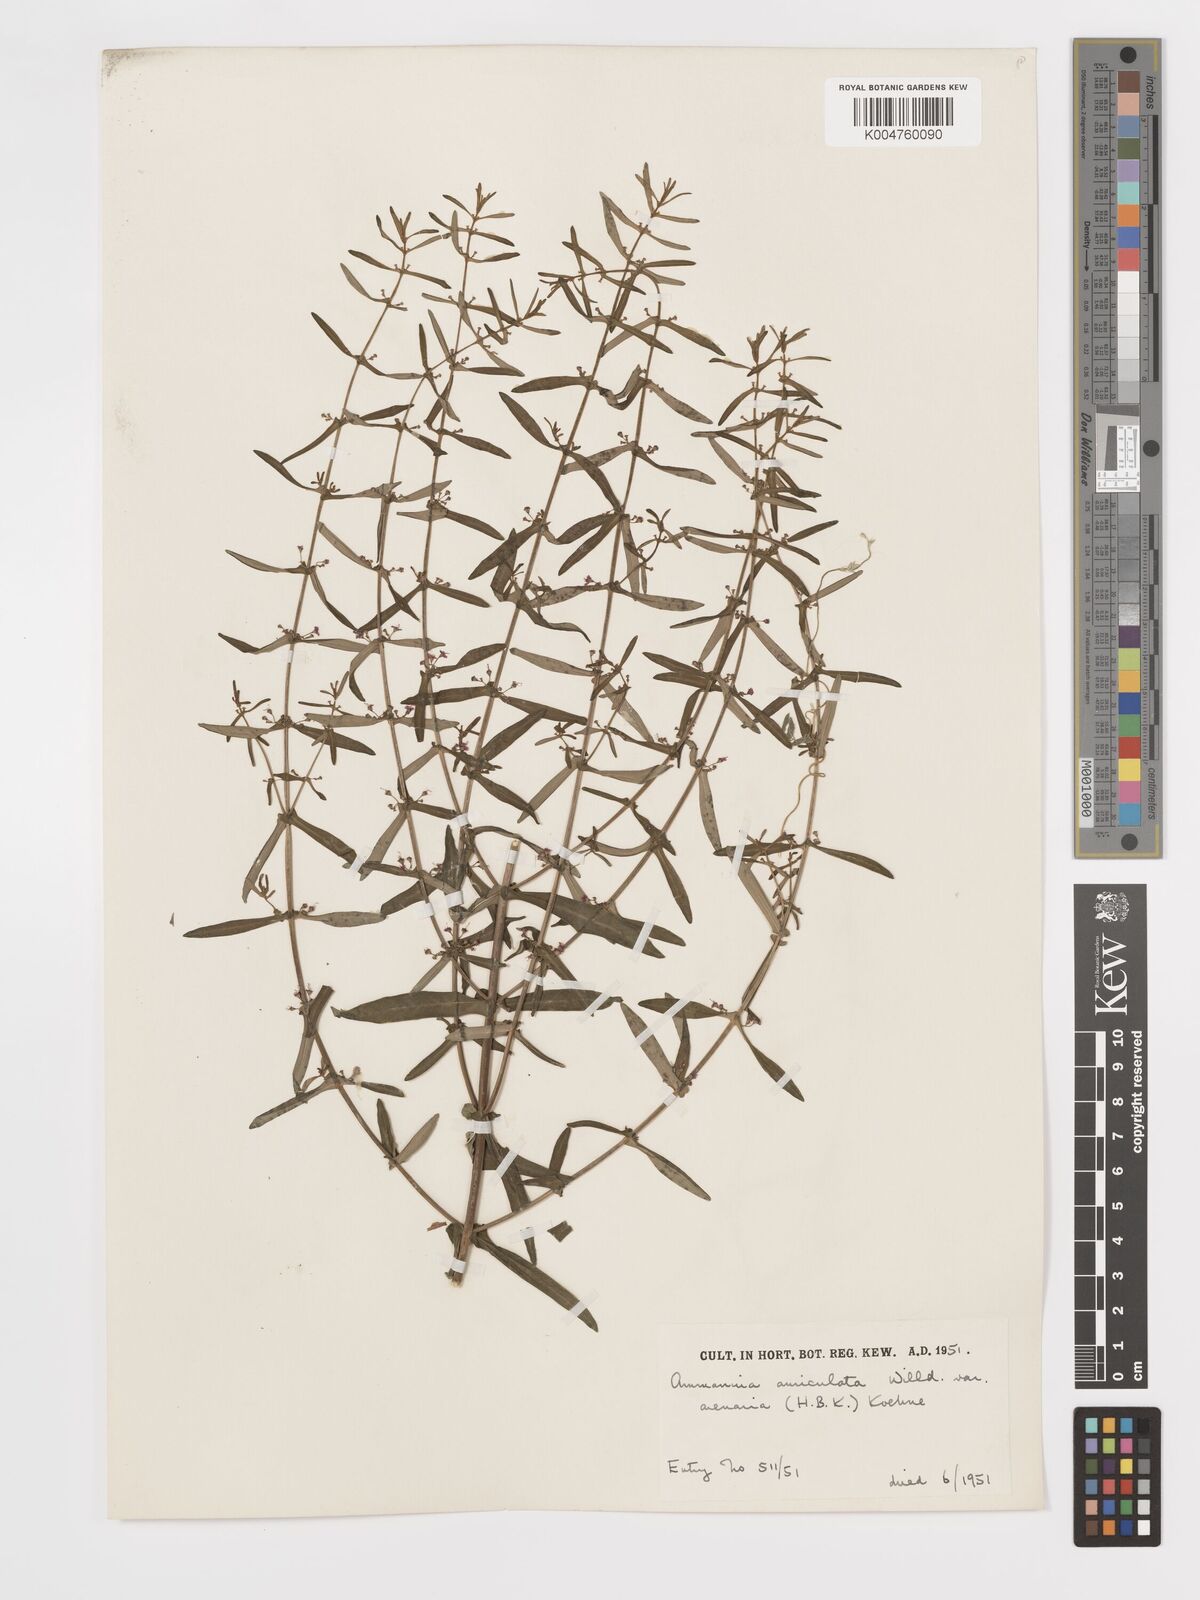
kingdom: Plantae
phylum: Tracheophyta
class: Magnoliopsida
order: Myrtales
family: Lythraceae
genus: Ammannia
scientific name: Ammannia auriculata
